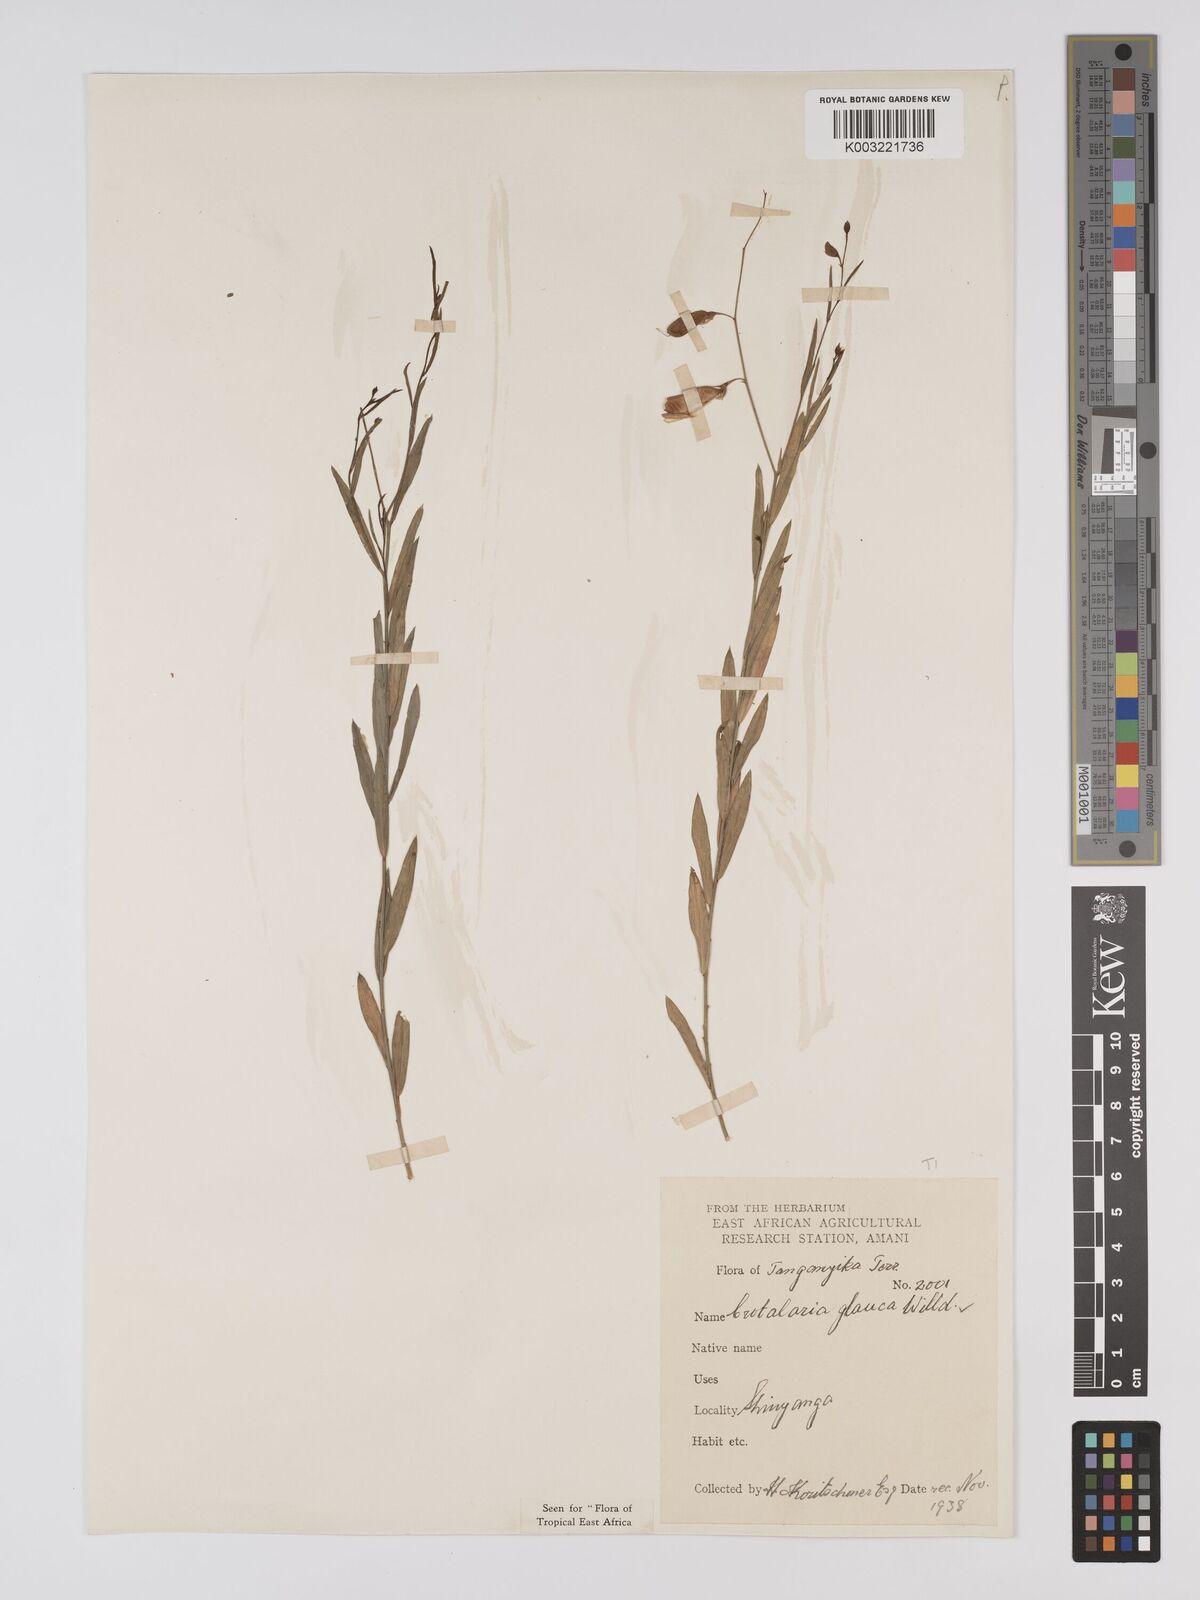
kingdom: Plantae
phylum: Tracheophyta
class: Magnoliopsida
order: Fabales
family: Fabaceae
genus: Crotalaria
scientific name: Crotalaria glauca
